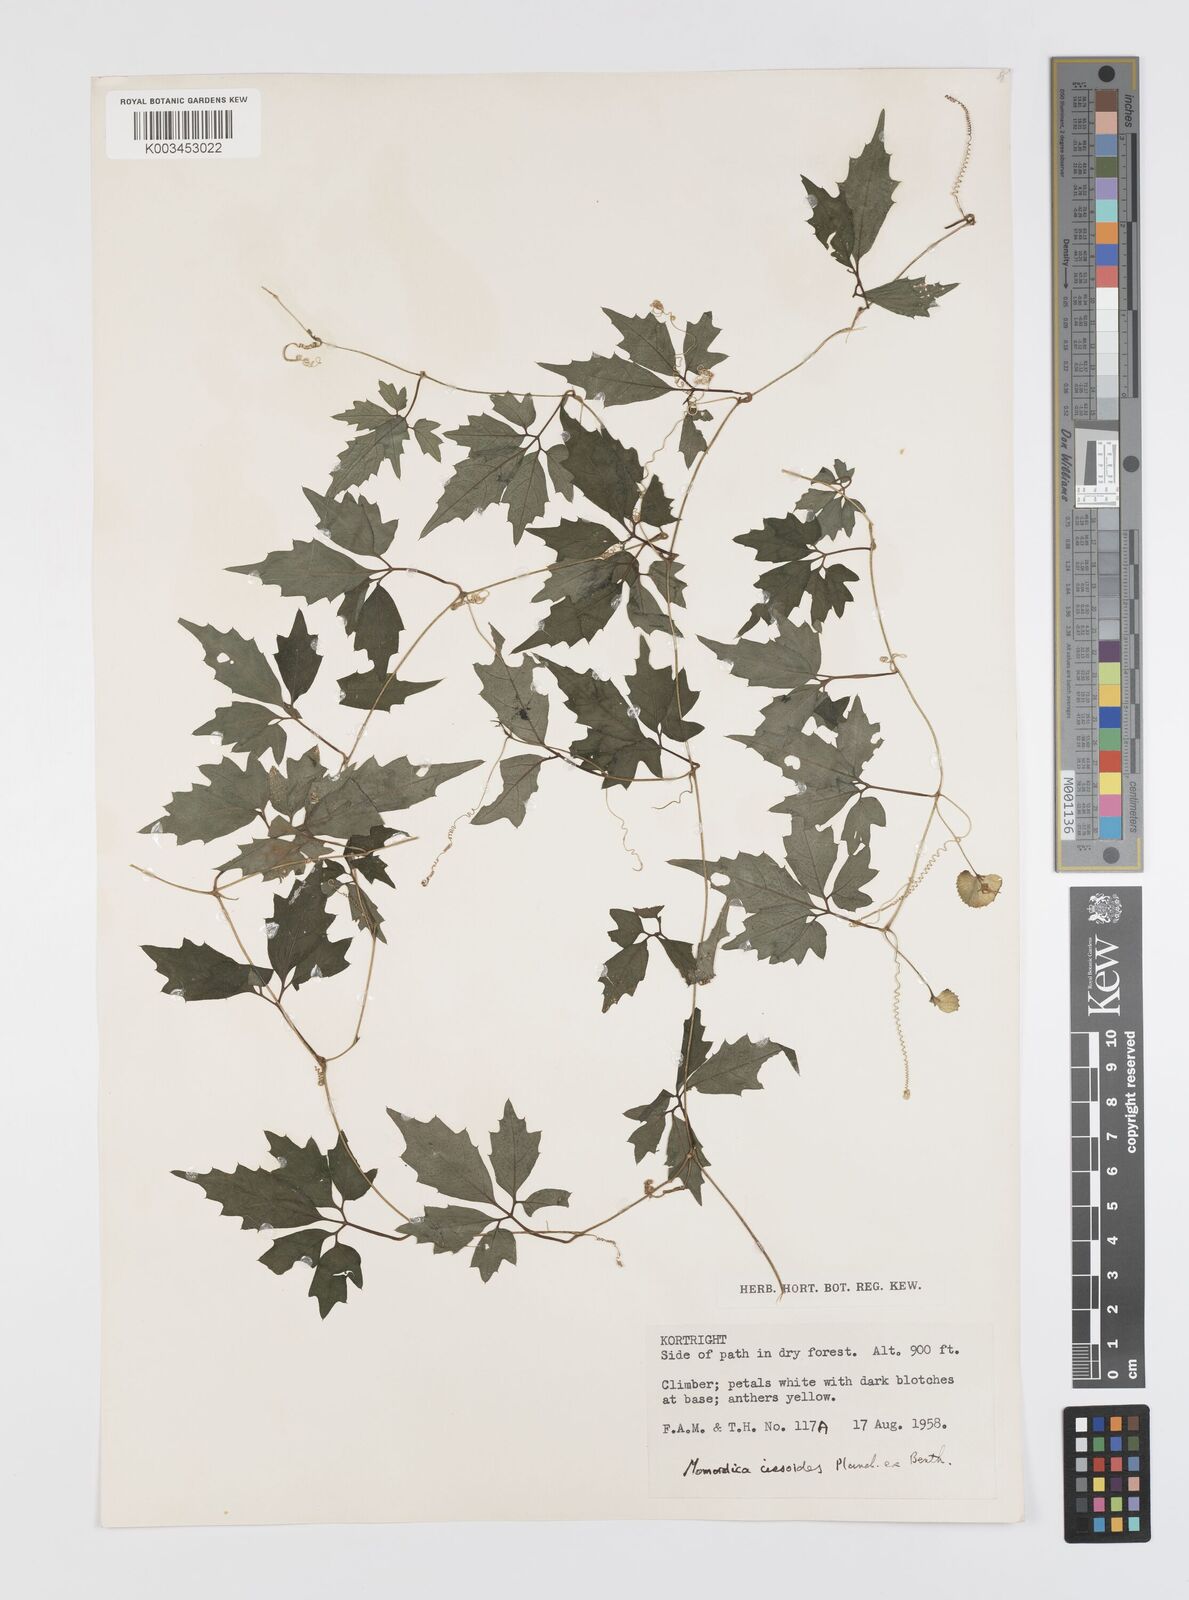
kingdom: Plantae
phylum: Tracheophyta
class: Magnoliopsida
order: Cucurbitales
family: Cucurbitaceae
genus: Momordica
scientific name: Momordica cissoides
